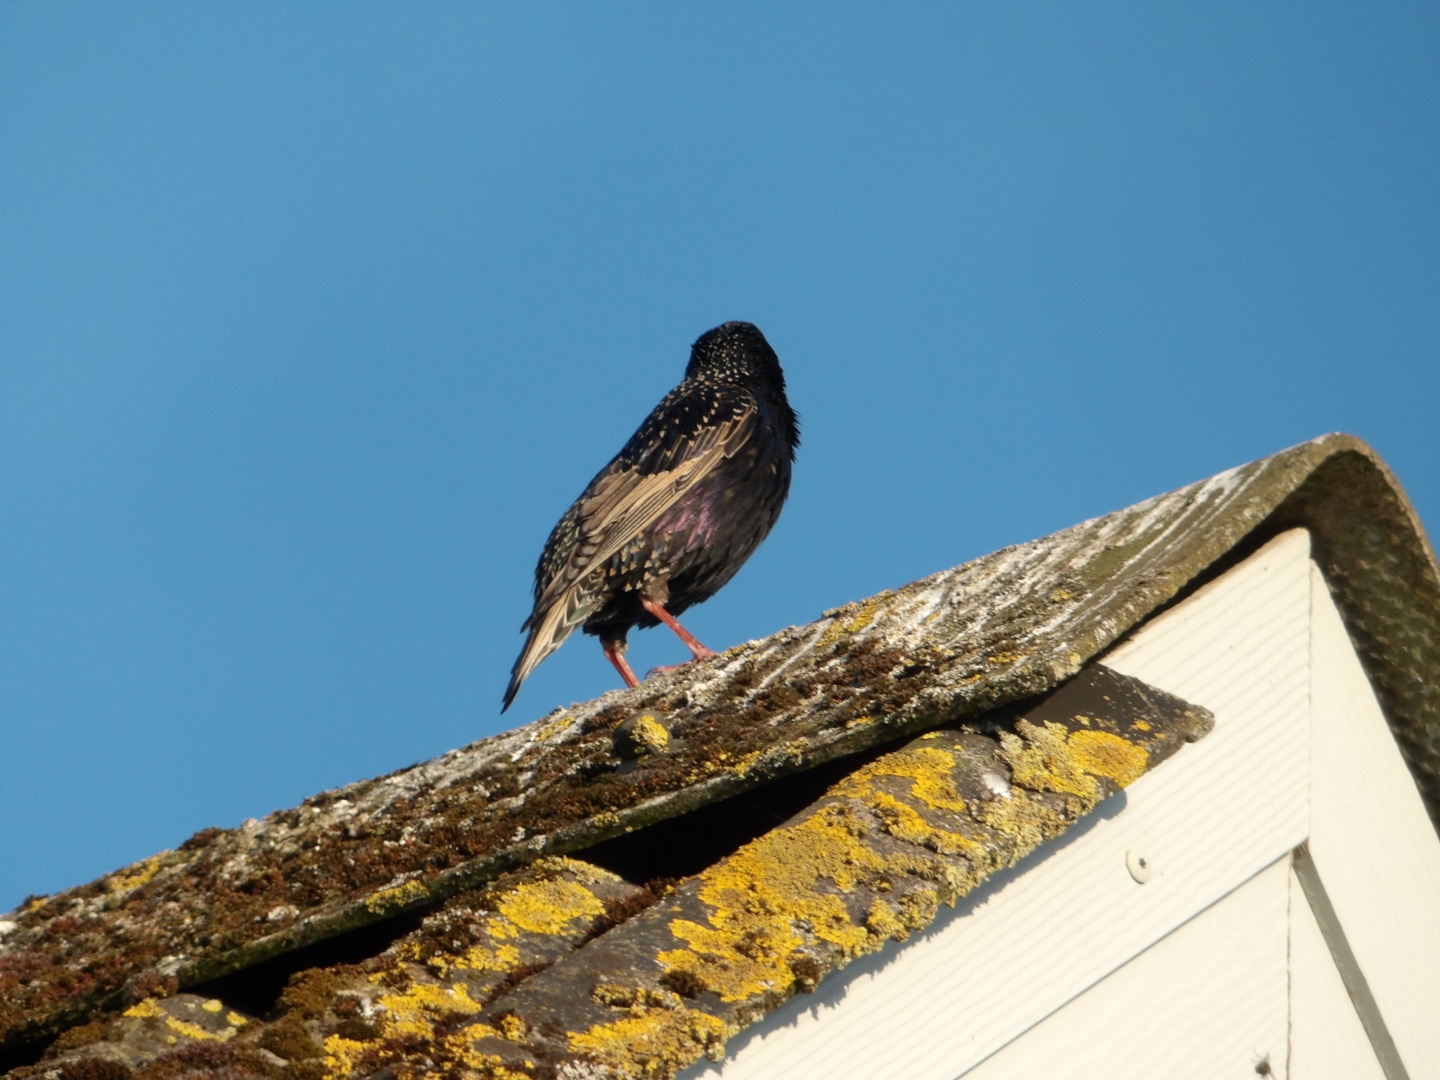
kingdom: Animalia
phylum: Chordata
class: Aves
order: Passeriformes
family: Sturnidae
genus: Sturnus
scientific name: Sturnus vulgaris
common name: Stær
